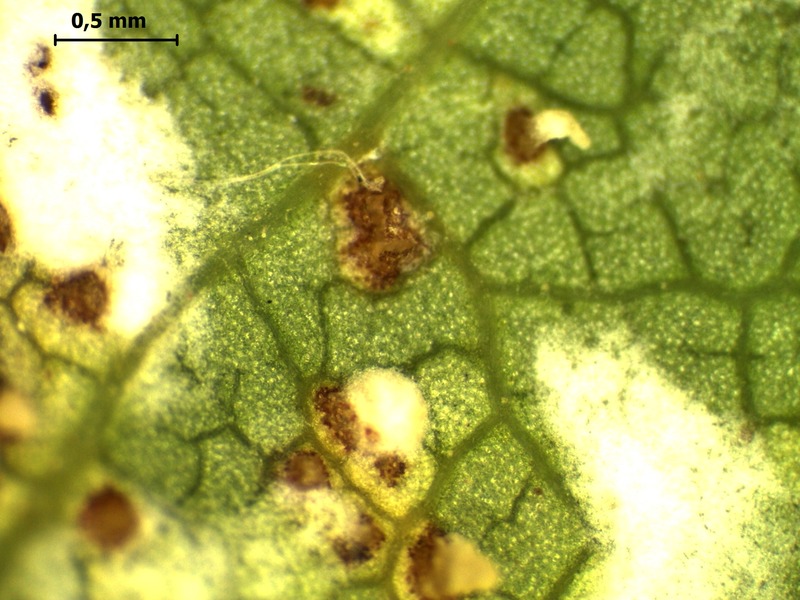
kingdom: Fungi
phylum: Ascomycota
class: Dothideomycetes
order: Mycosphaerellales
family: Mycosphaerellaceae
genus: Mycosphaerella
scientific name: Mycosphaerella ulmi
